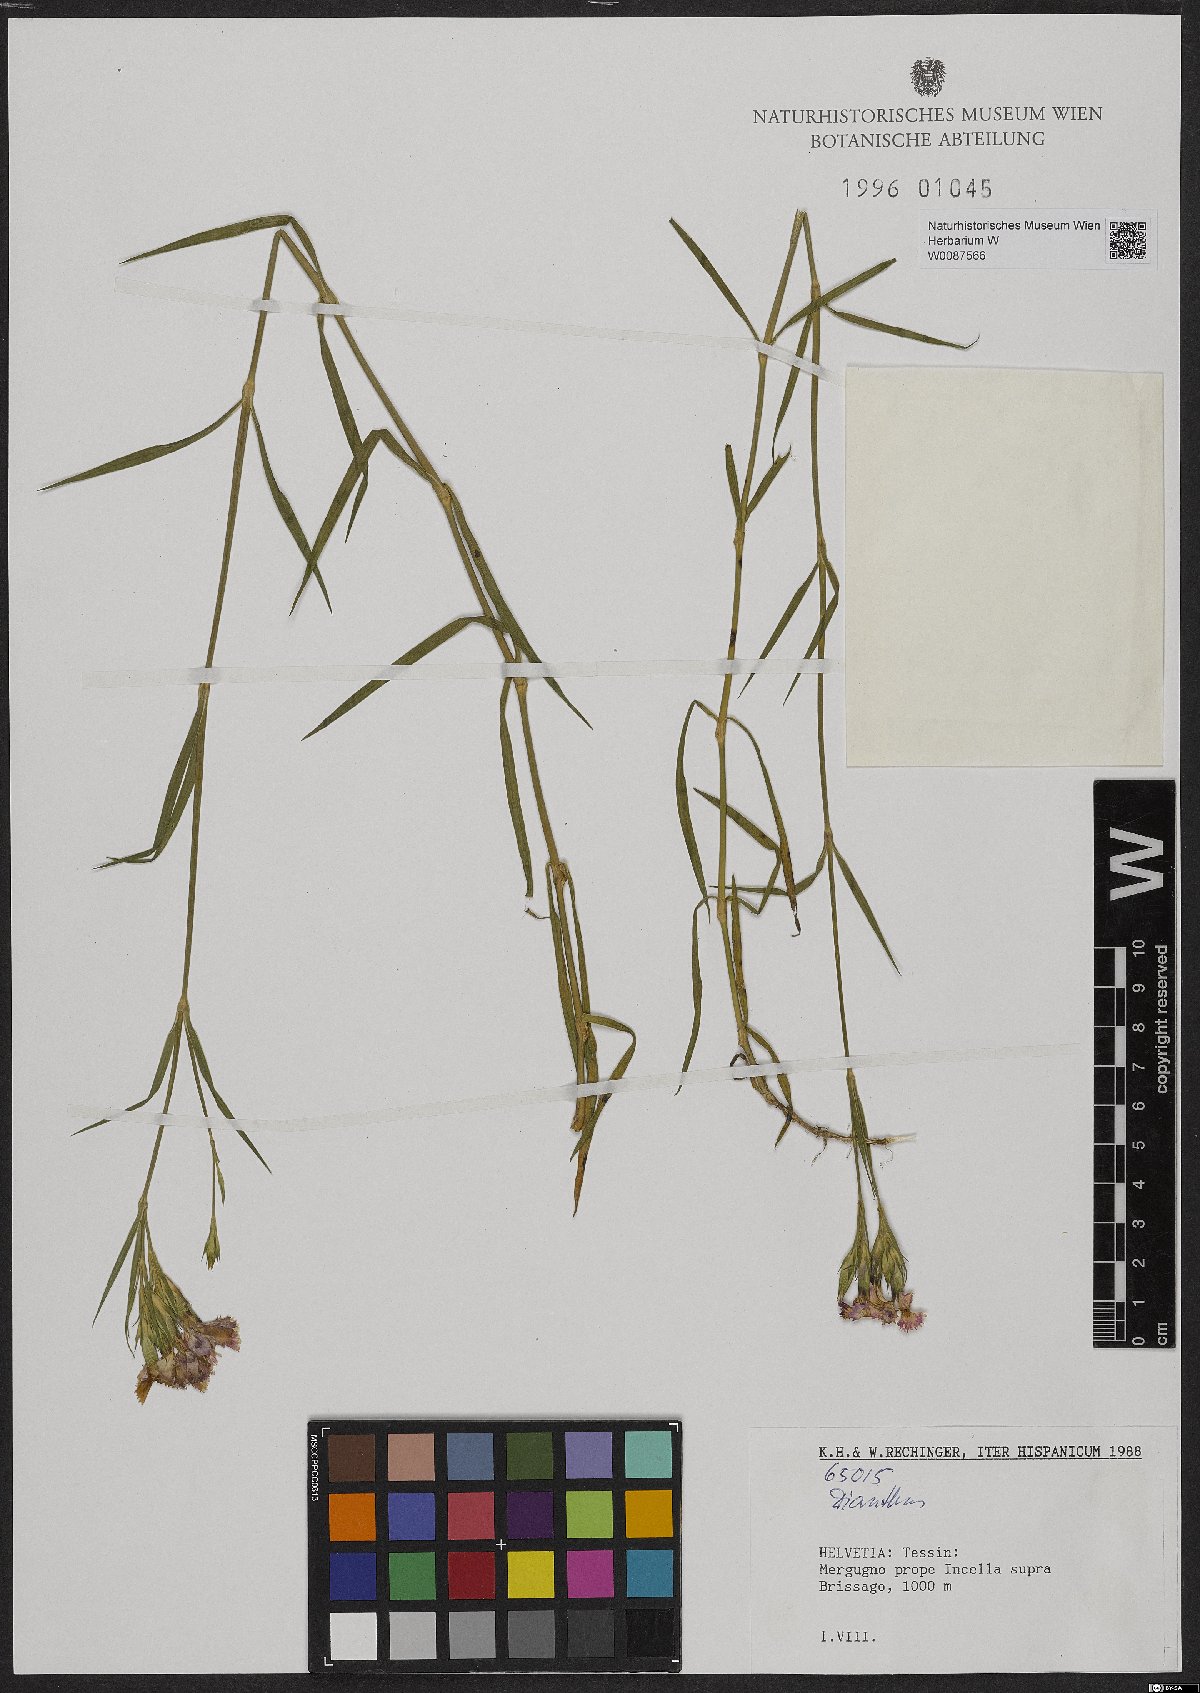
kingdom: Plantae
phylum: Tracheophyta
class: Magnoliopsida
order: Caryophyllales
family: Caryophyllaceae
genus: Dianthus
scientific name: Dianthus
